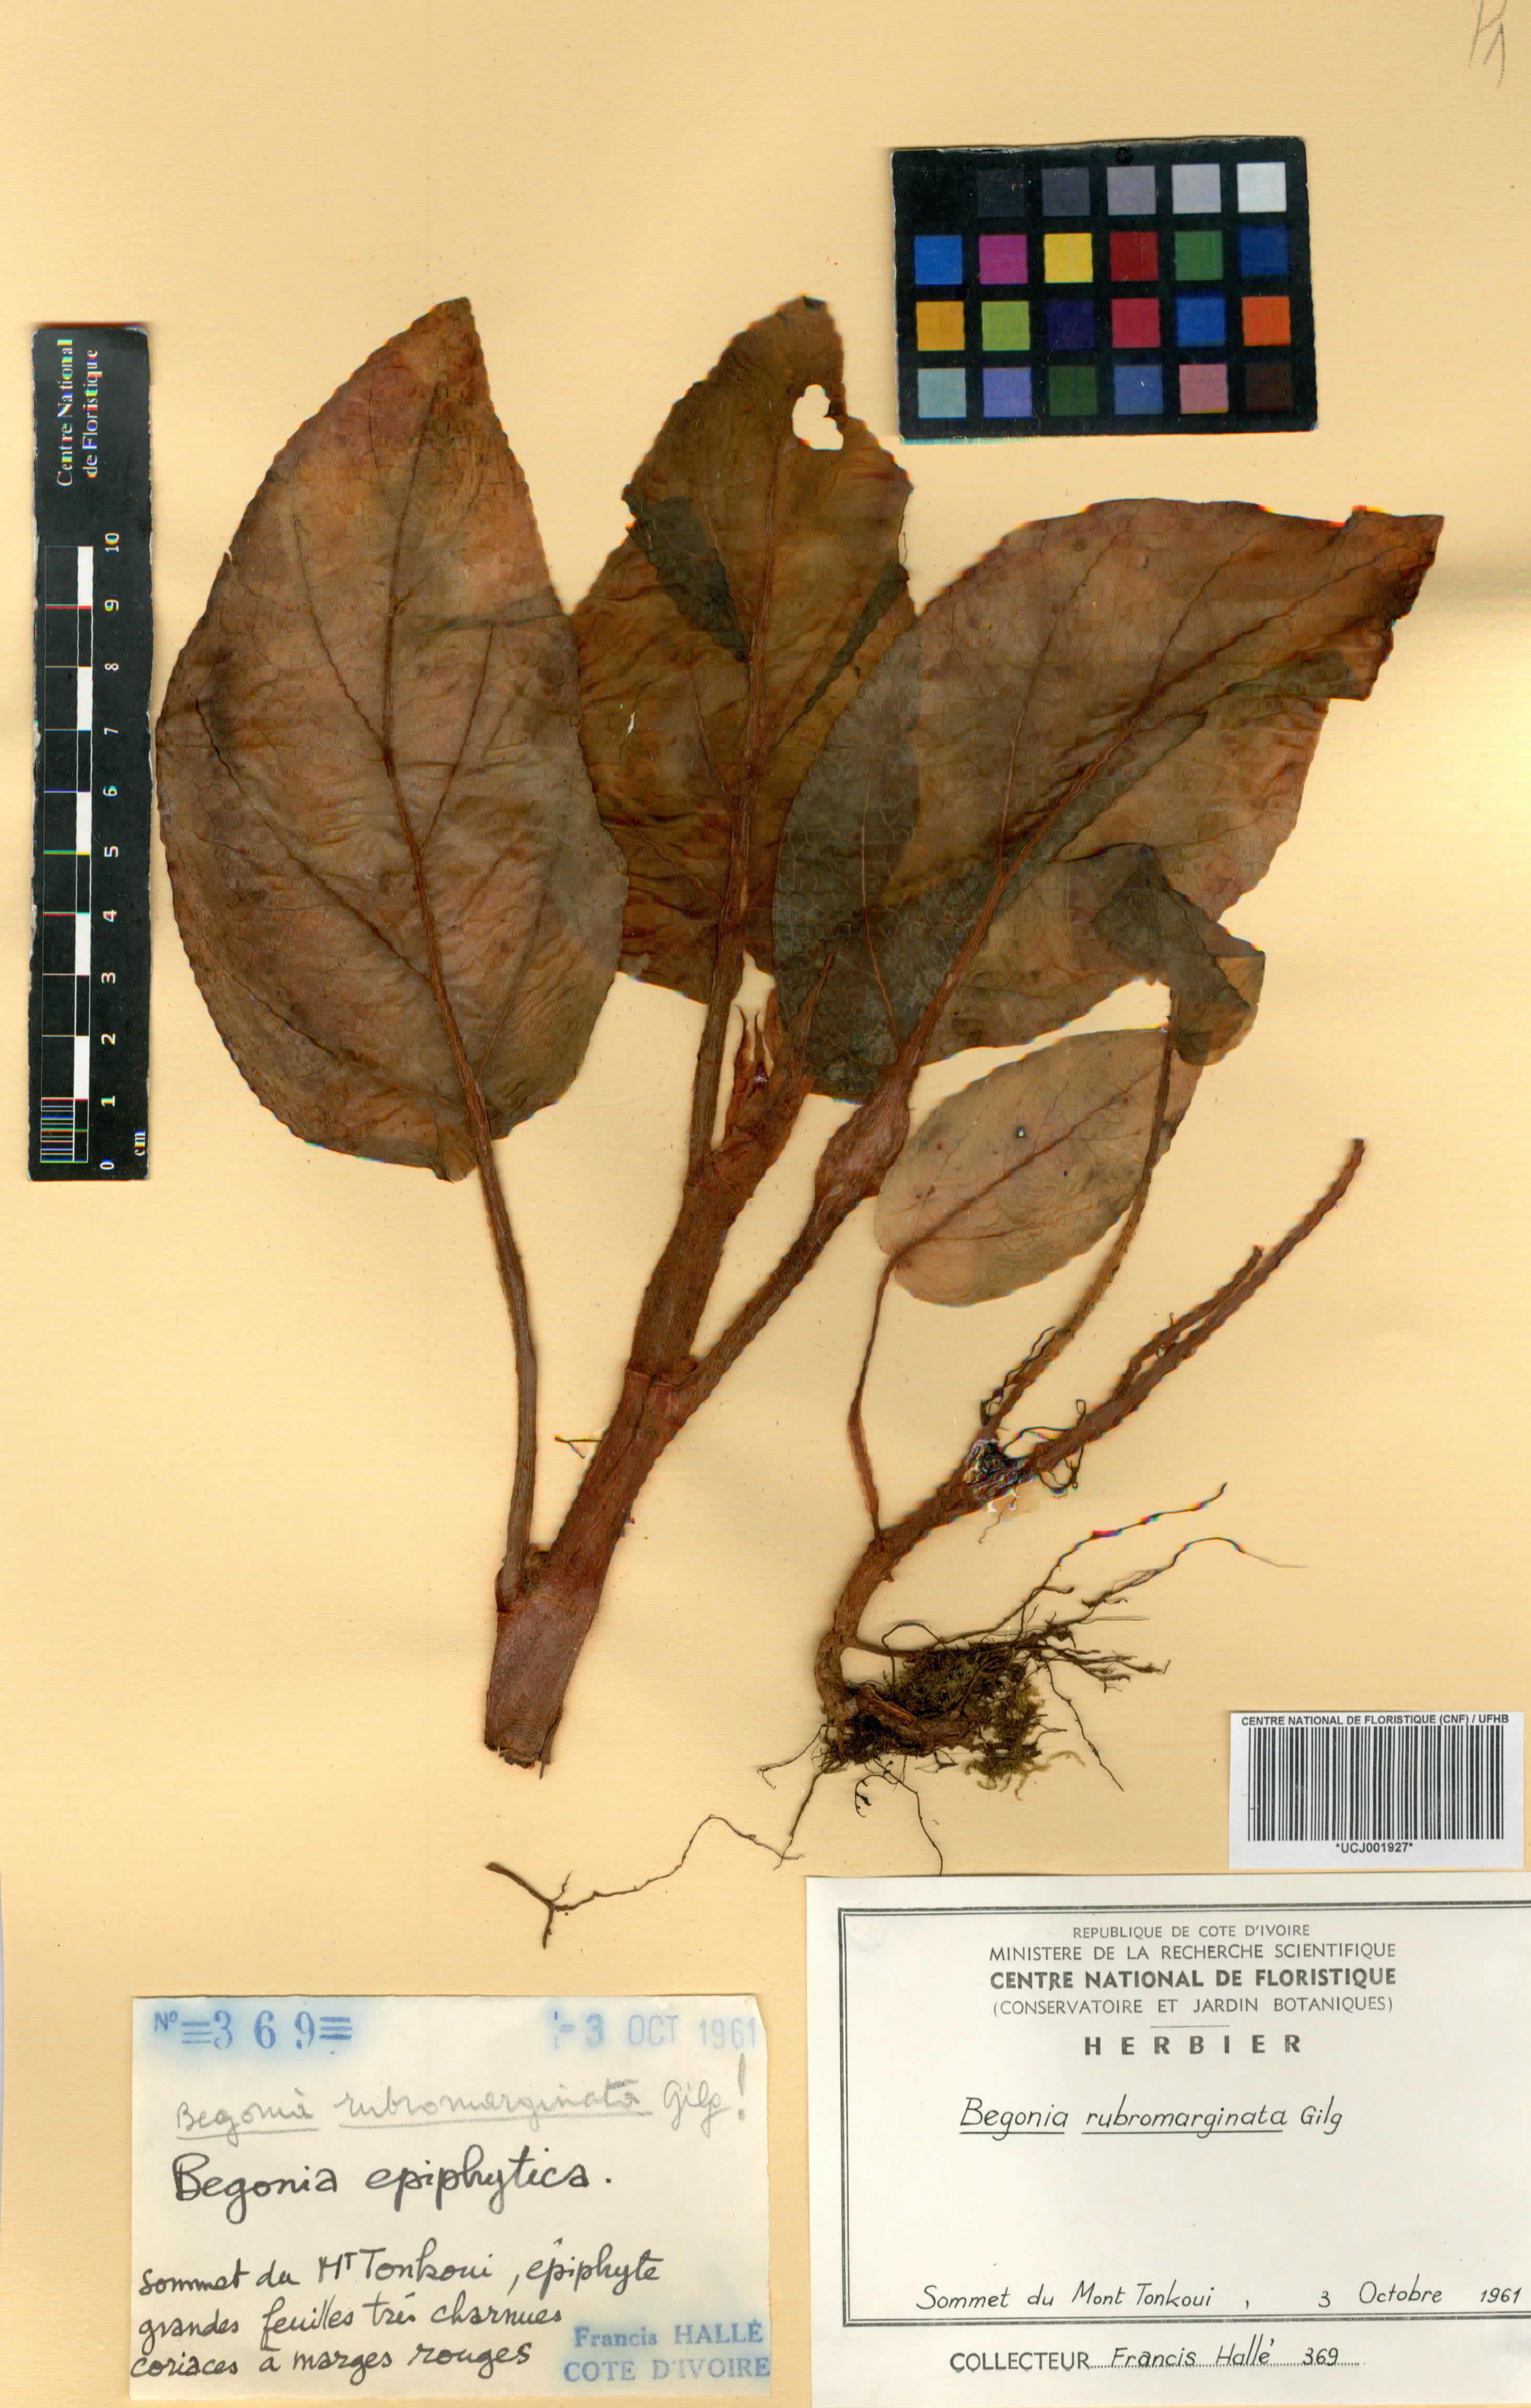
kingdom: Plantae
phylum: Tracheophyta
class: Magnoliopsida
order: Cucurbitales
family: Begoniaceae
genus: Begonia
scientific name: Begonia rubromarginata
